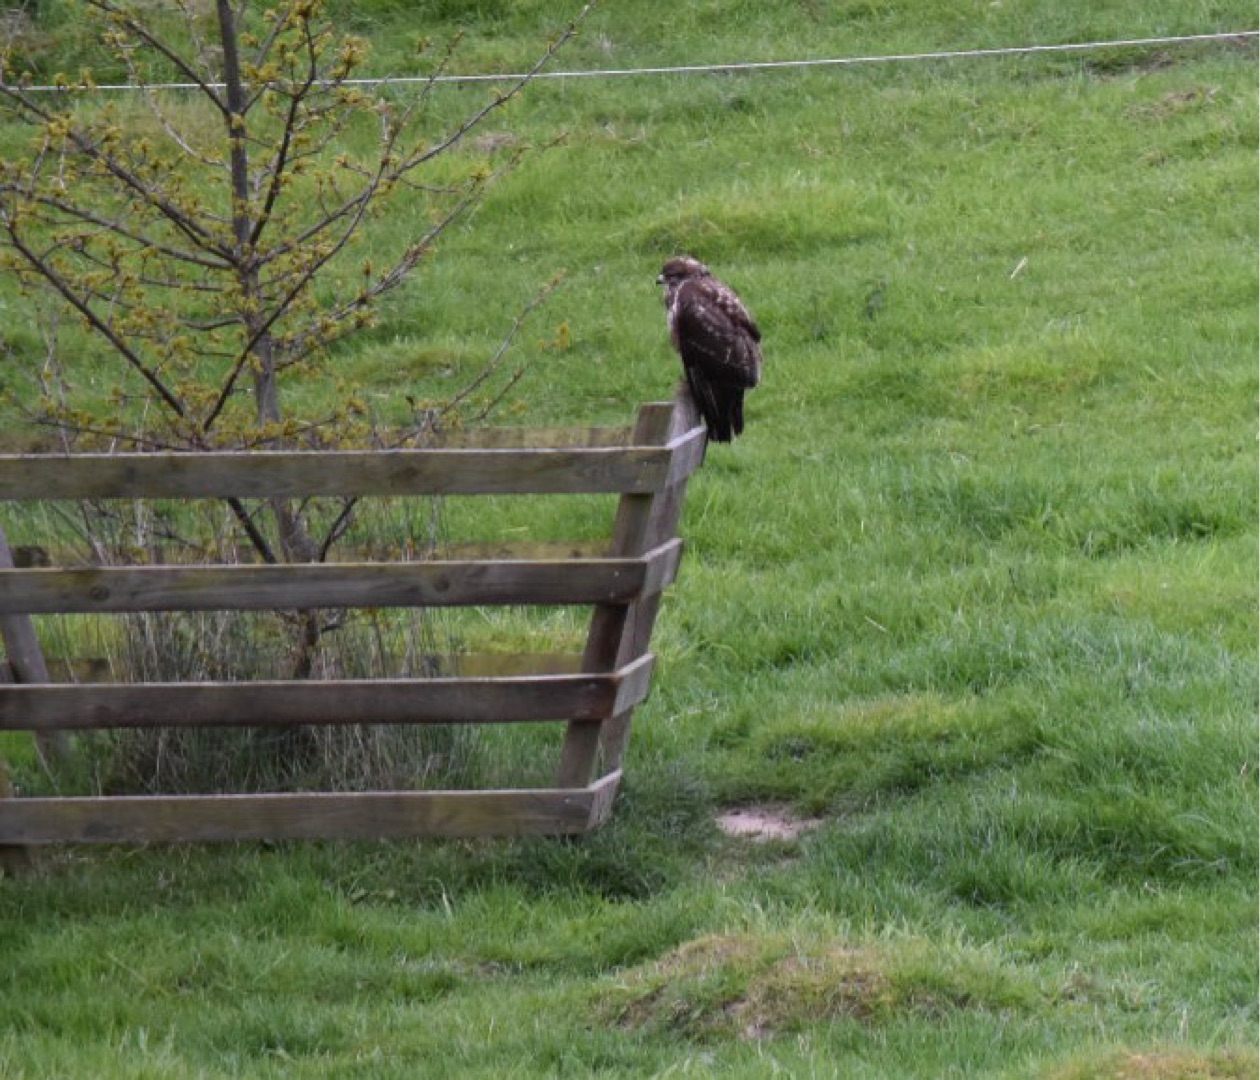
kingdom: Animalia
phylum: Chordata
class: Aves
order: Accipitriformes
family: Accipitridae
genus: Buteo
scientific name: Buteo buteo
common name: Musvåge
